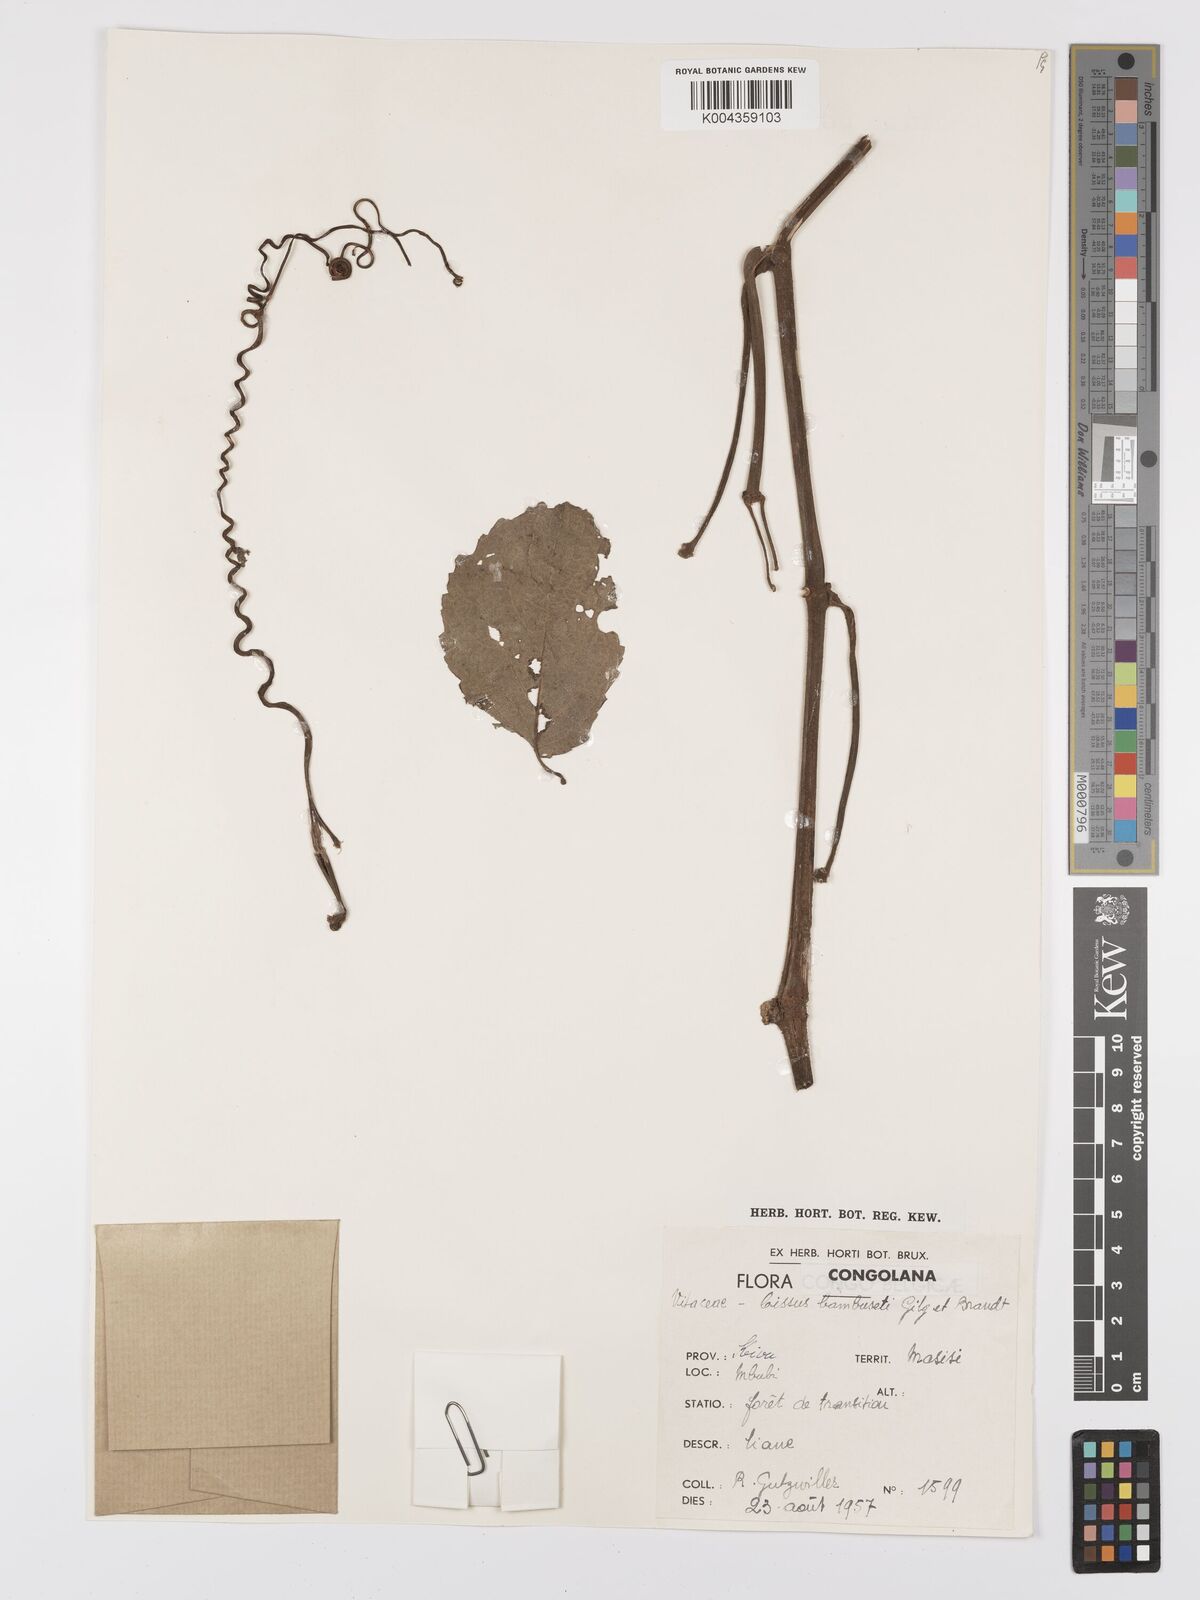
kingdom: Plantae
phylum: Tracheophyta
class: Magnoliopsida
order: Vitales
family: Vitaceae
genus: Cyphostemma
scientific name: Cyphostemma bambuseti
